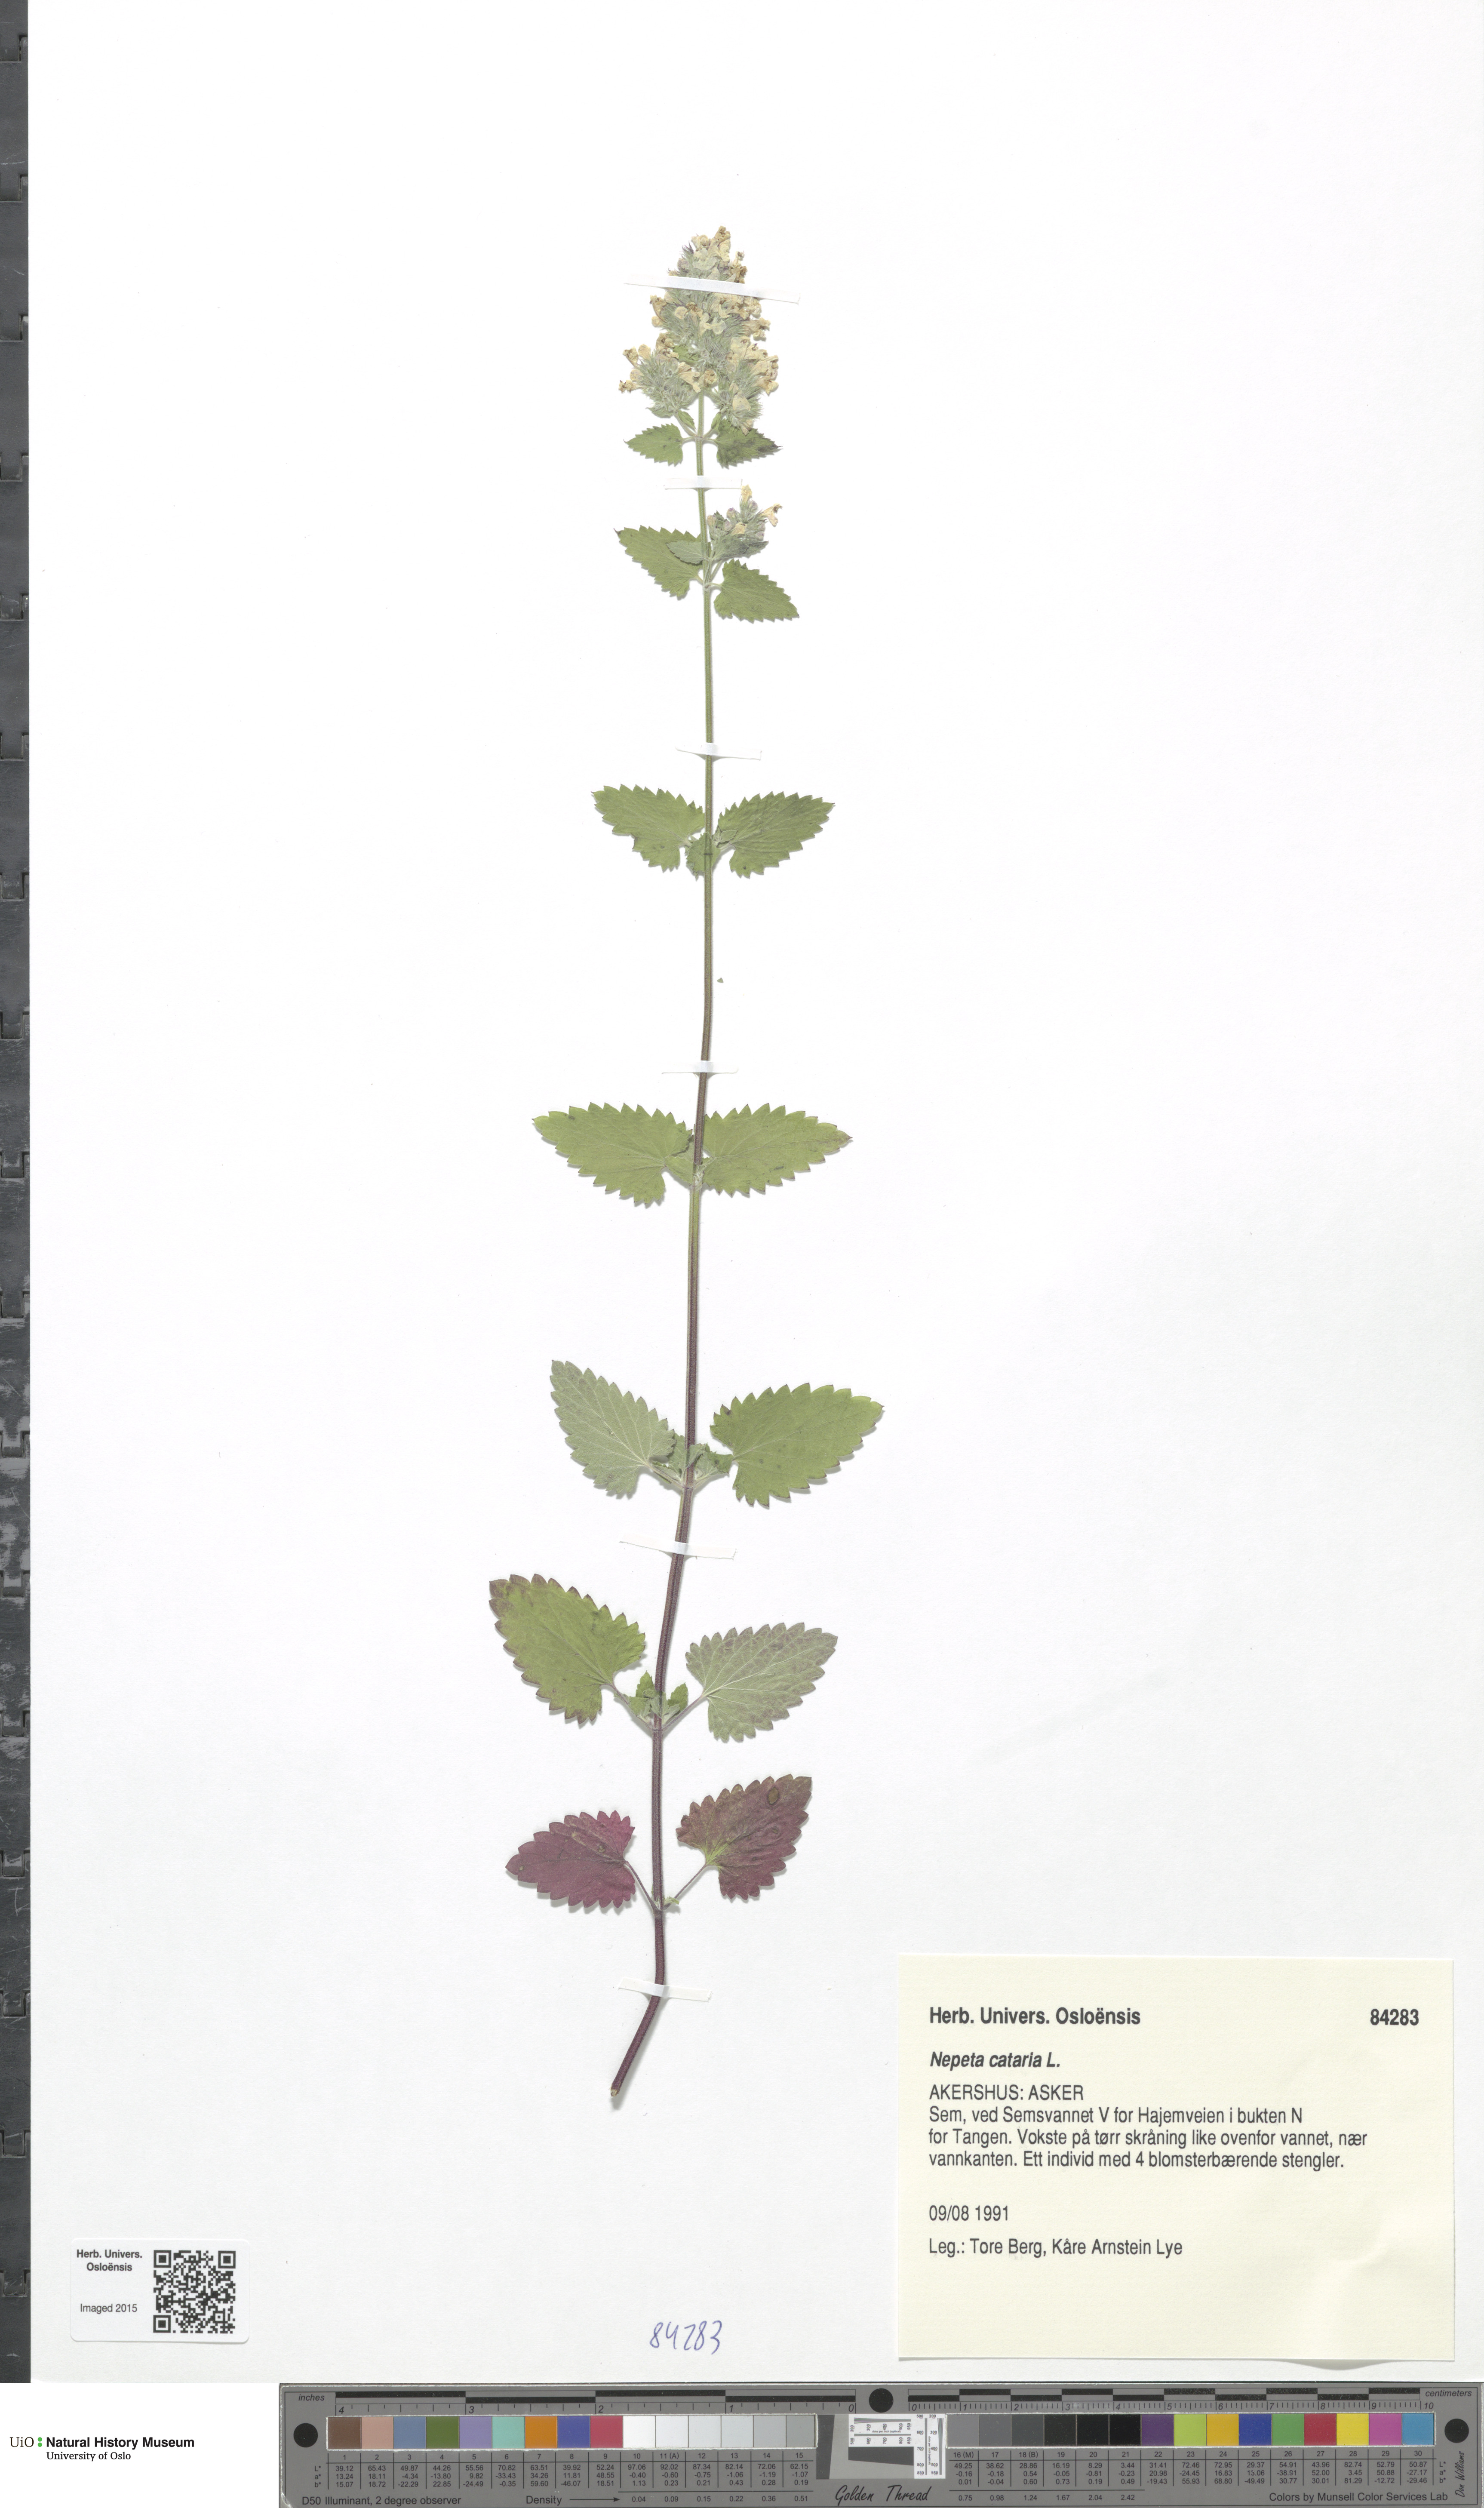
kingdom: Plantae
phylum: Tracheophyta
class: Magnoliopsida
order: Lamiales
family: Lamiaceae
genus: Nepeta
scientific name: Nepeta cataria
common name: Catnip
